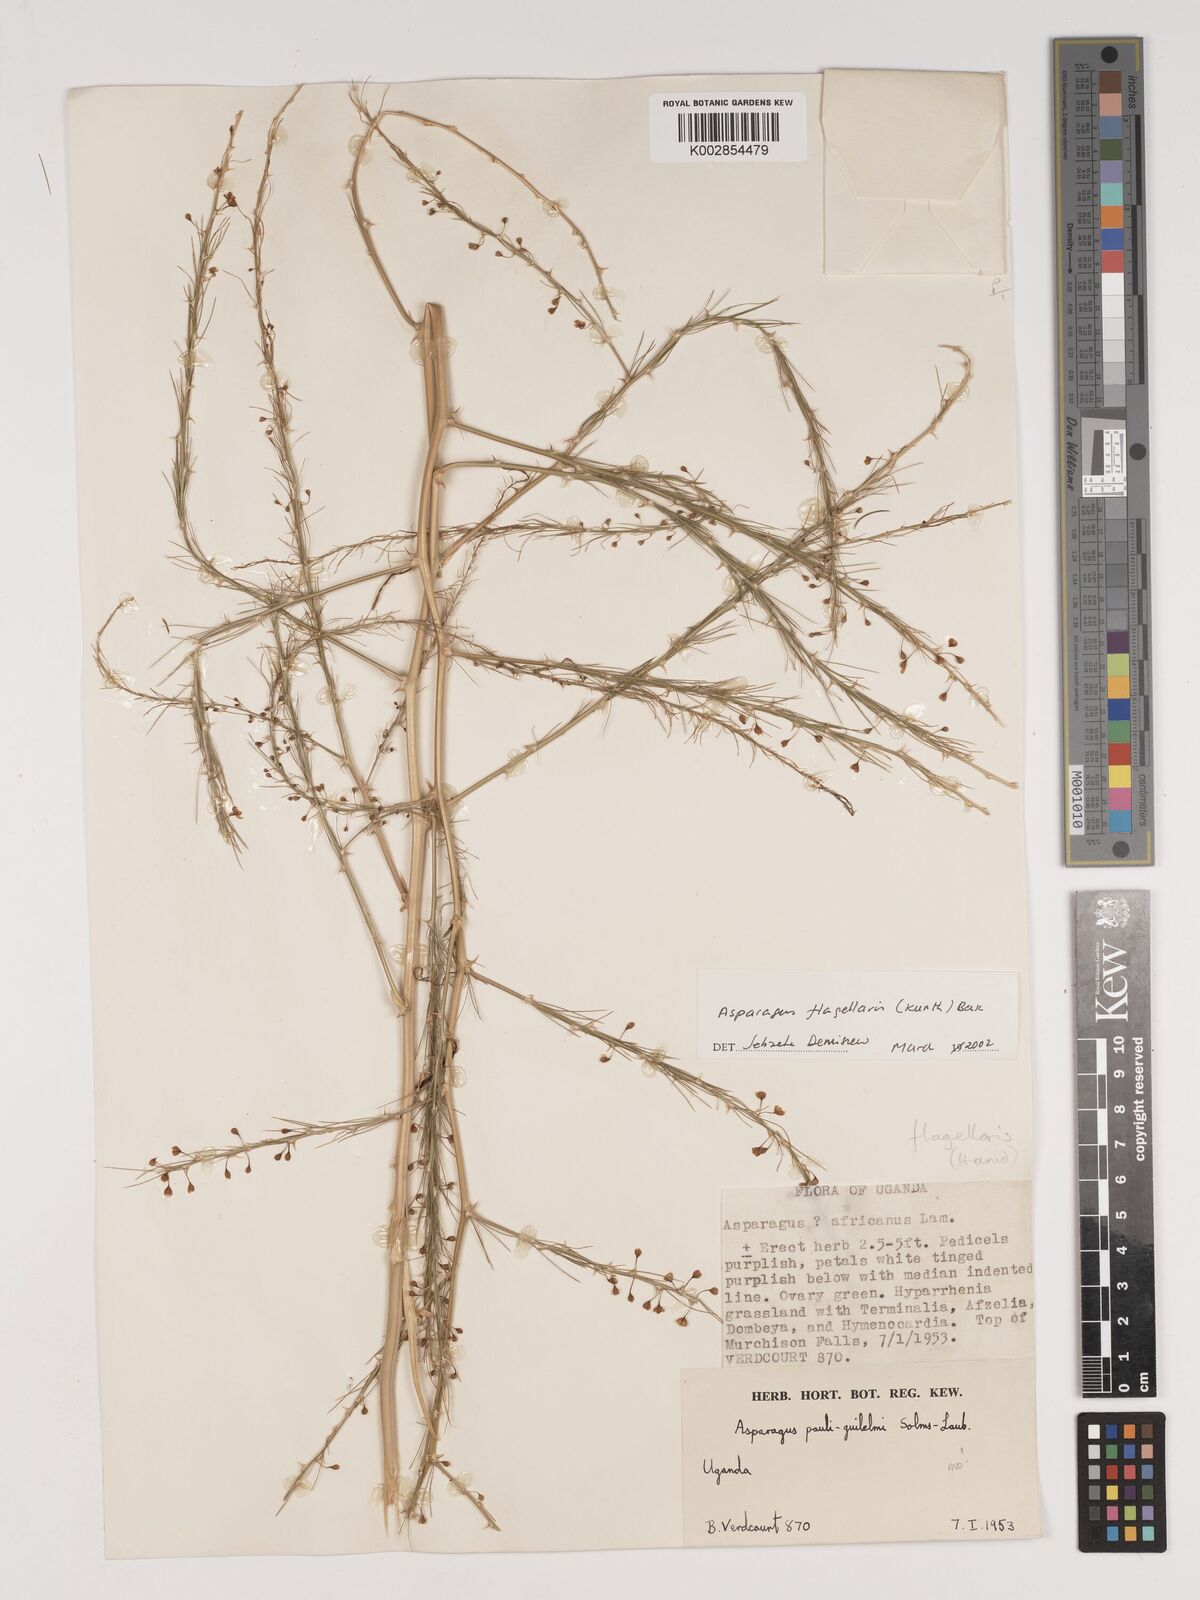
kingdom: Plantae
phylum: Tracheophyta
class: Liliopsida
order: Asparagales
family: Asparagaceae
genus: Asparagus
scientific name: Asparagus flagellaris
